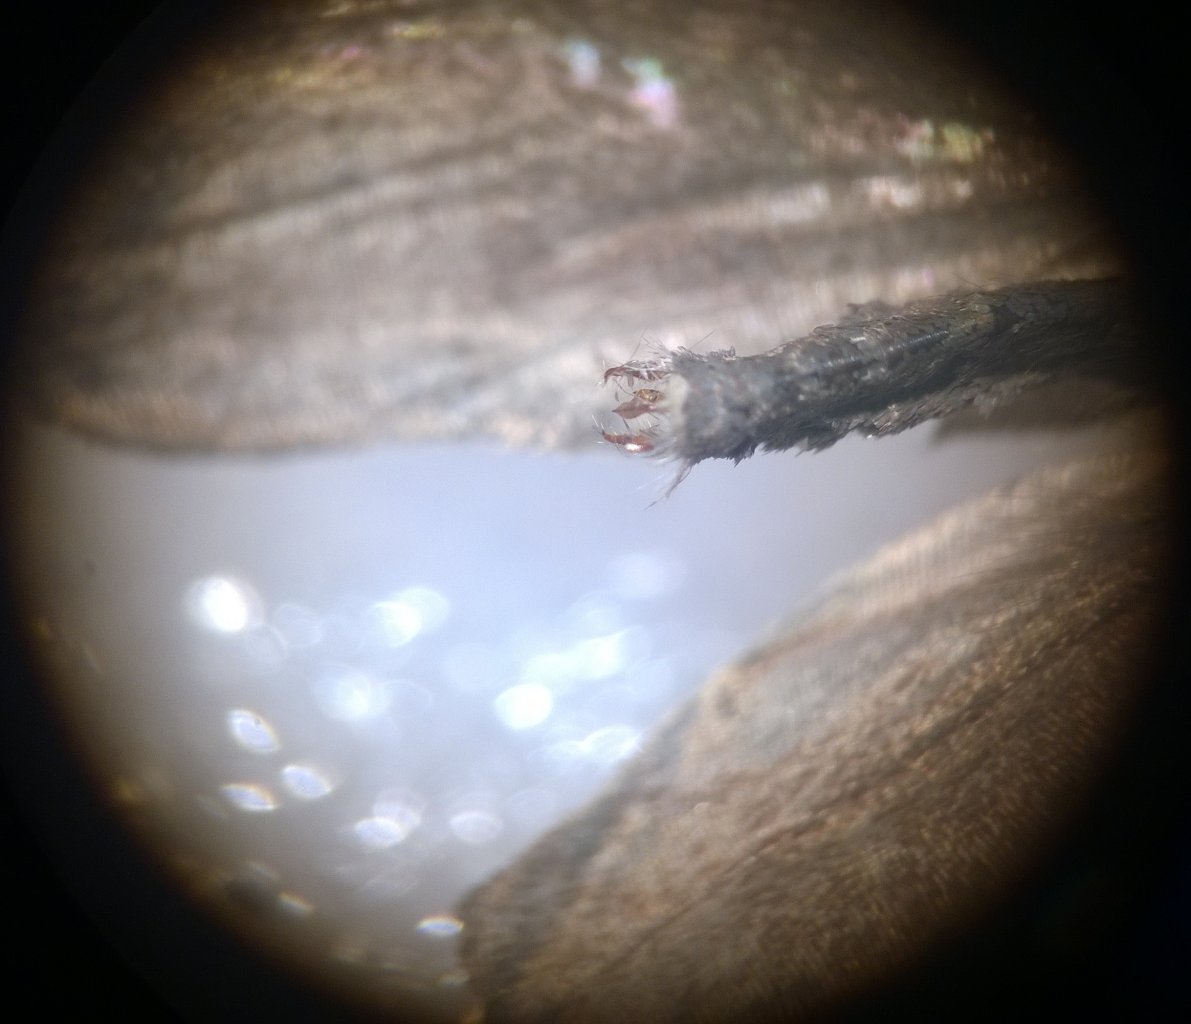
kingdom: Animalia
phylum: Arthropoda
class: Insecta
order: Lepidoptera
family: Nymphalidae
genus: Hermeuptychia
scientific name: Hermeuptychia intricata
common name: Intricate Satyr
